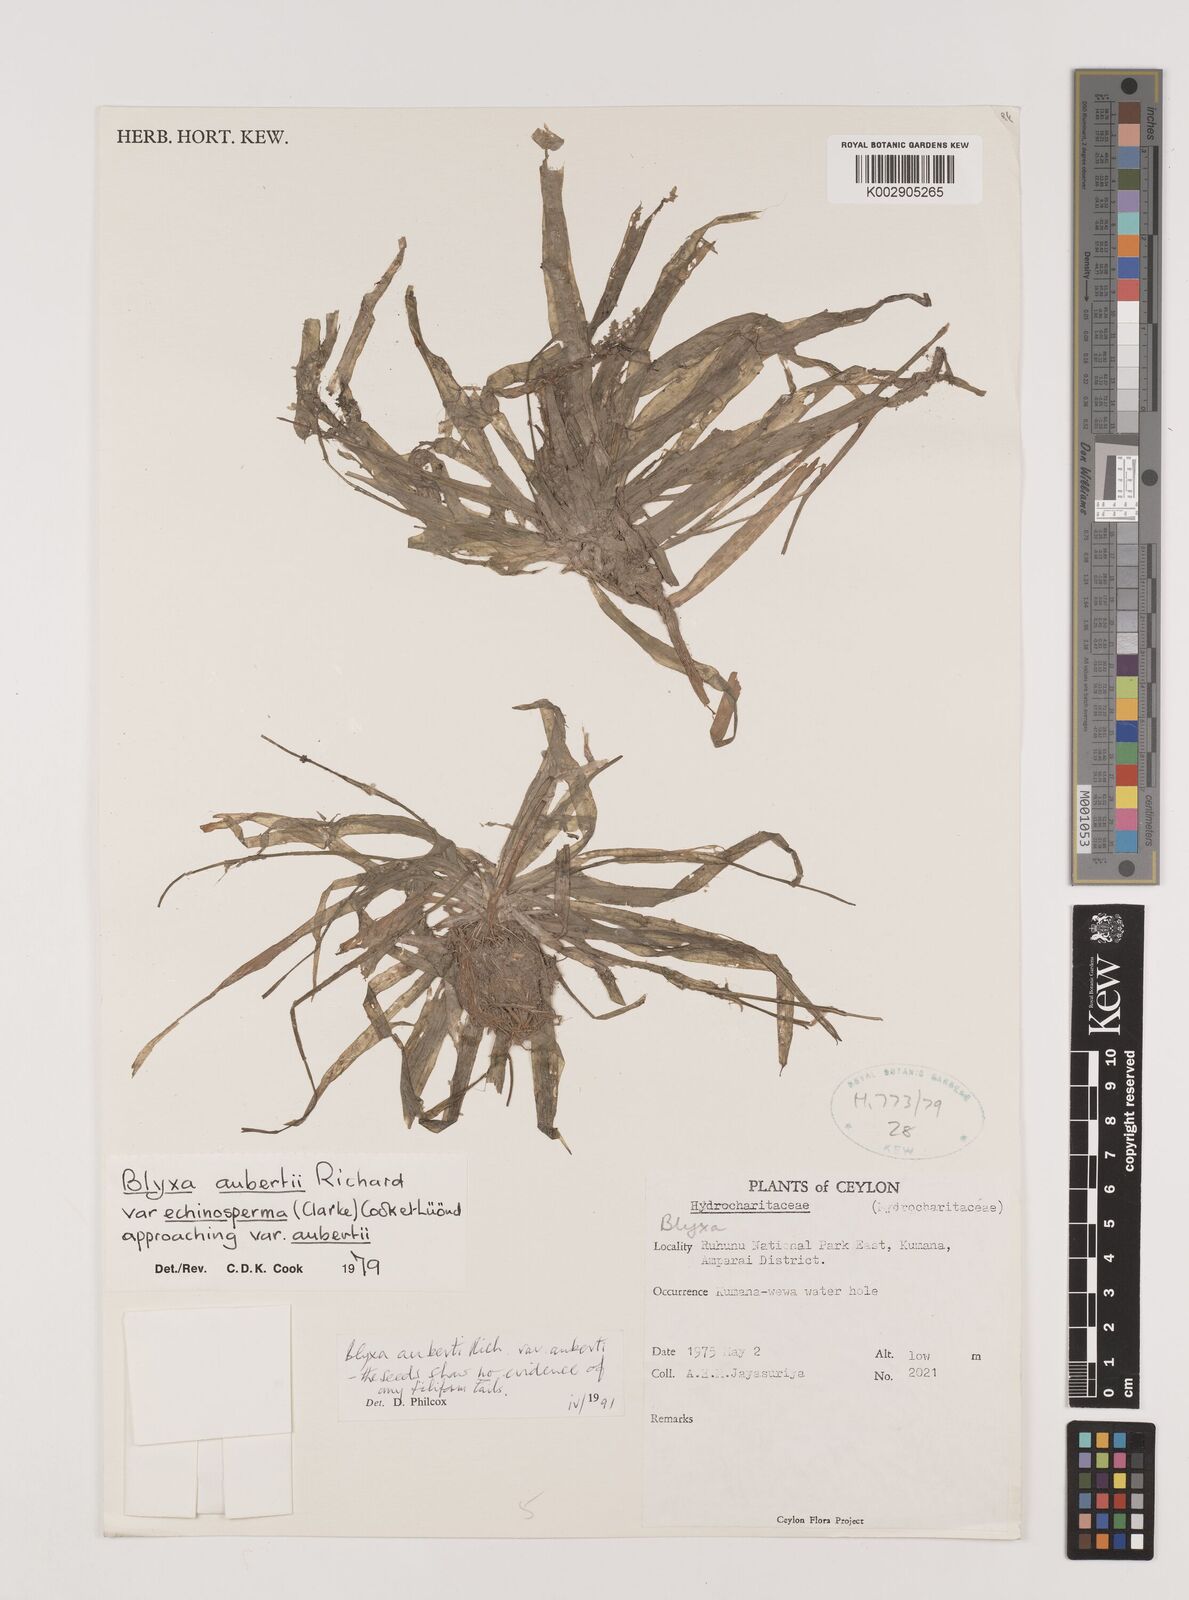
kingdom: Plantae
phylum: Tracheophyta
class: Liliopsida
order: Alismatales
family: Hydrocharitaceae
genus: Blyxa
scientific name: Blyxa echinosperma
